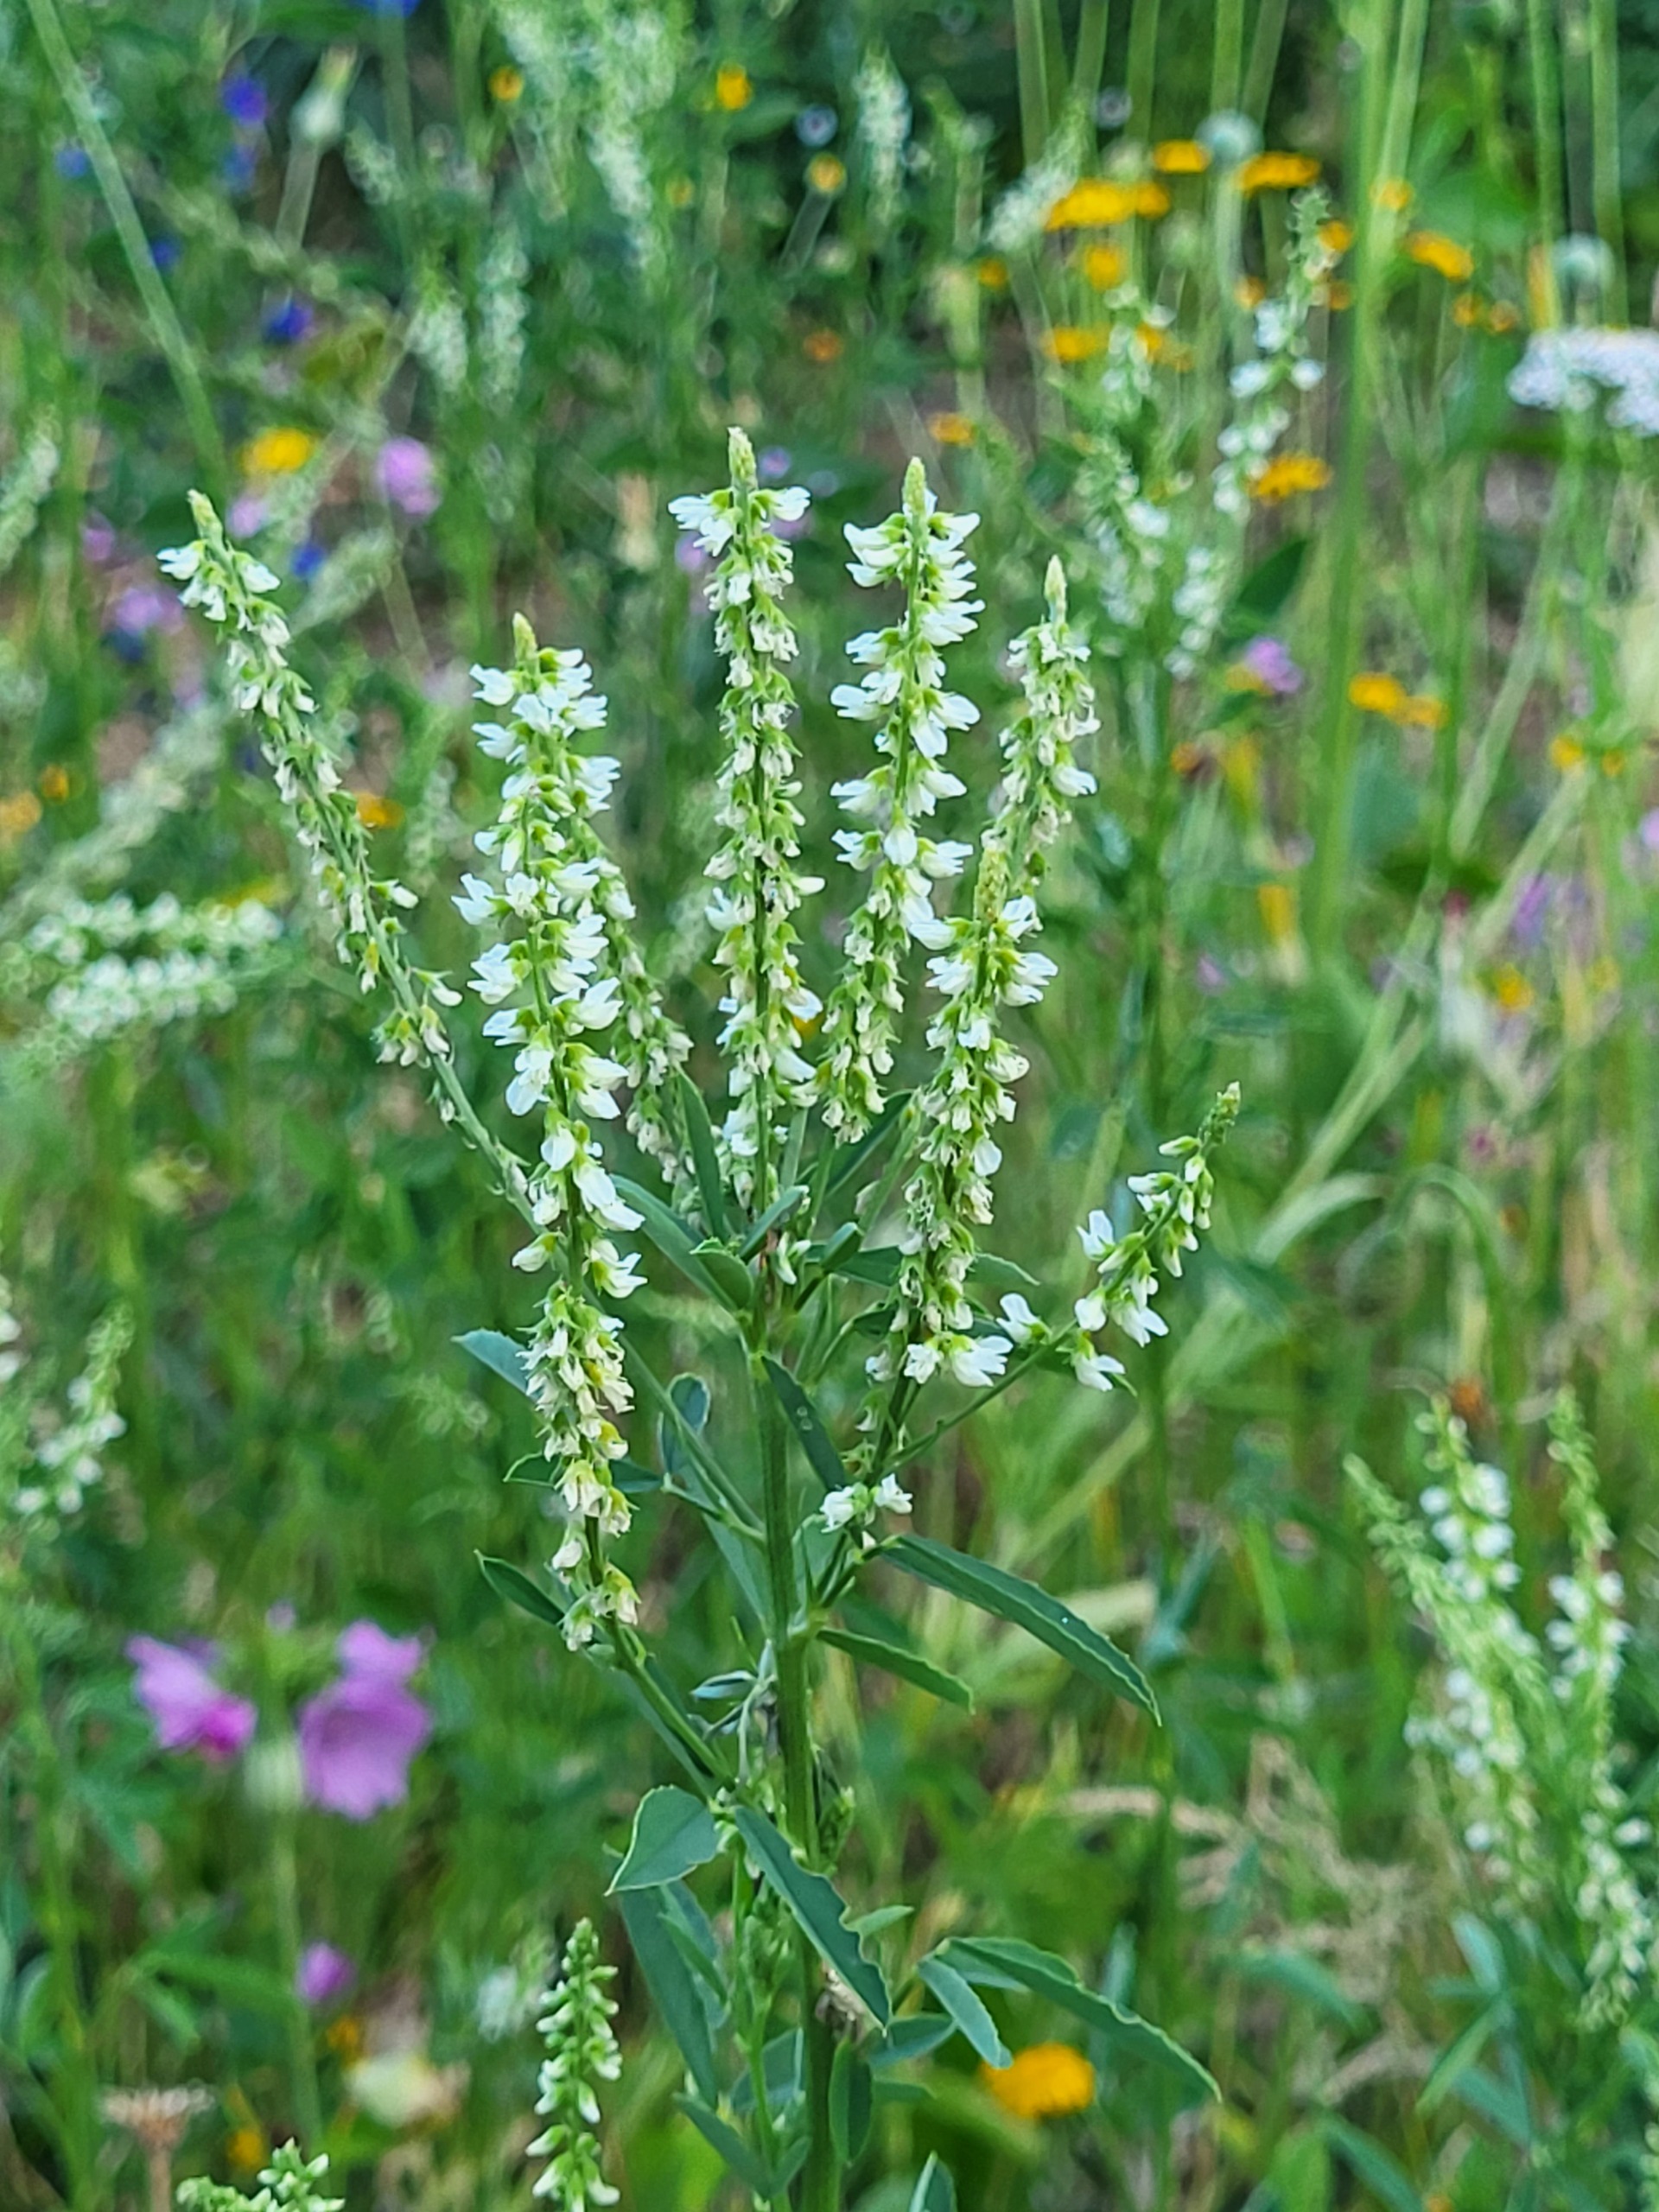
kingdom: Plantae
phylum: Tracheophyta
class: Magnoliopsida
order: Fabales
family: Fabaceae
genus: Melilotus
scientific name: Melilotus albus
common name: Hvid stenkløver
